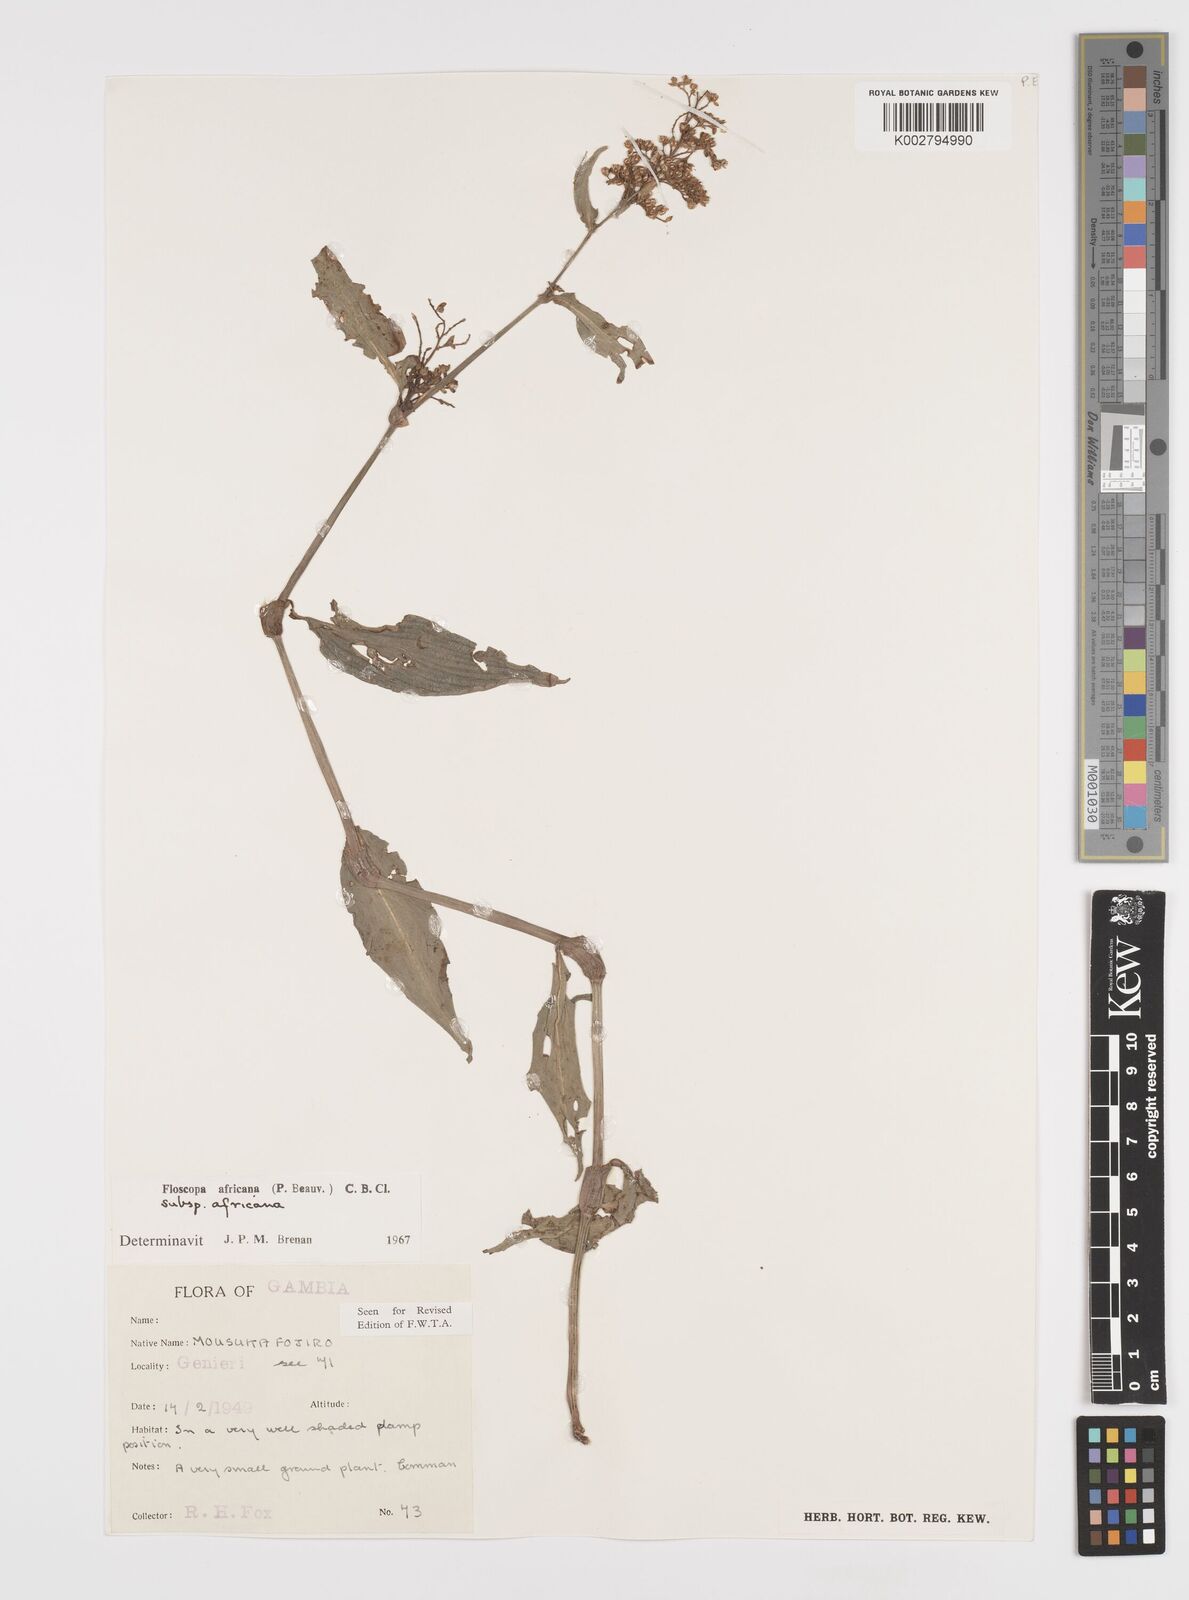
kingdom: Plantae
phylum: Tracheophyta
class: Liliopsida
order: Commelinales
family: Commelinaceae
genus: Floscopa
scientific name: Floscopa africana
